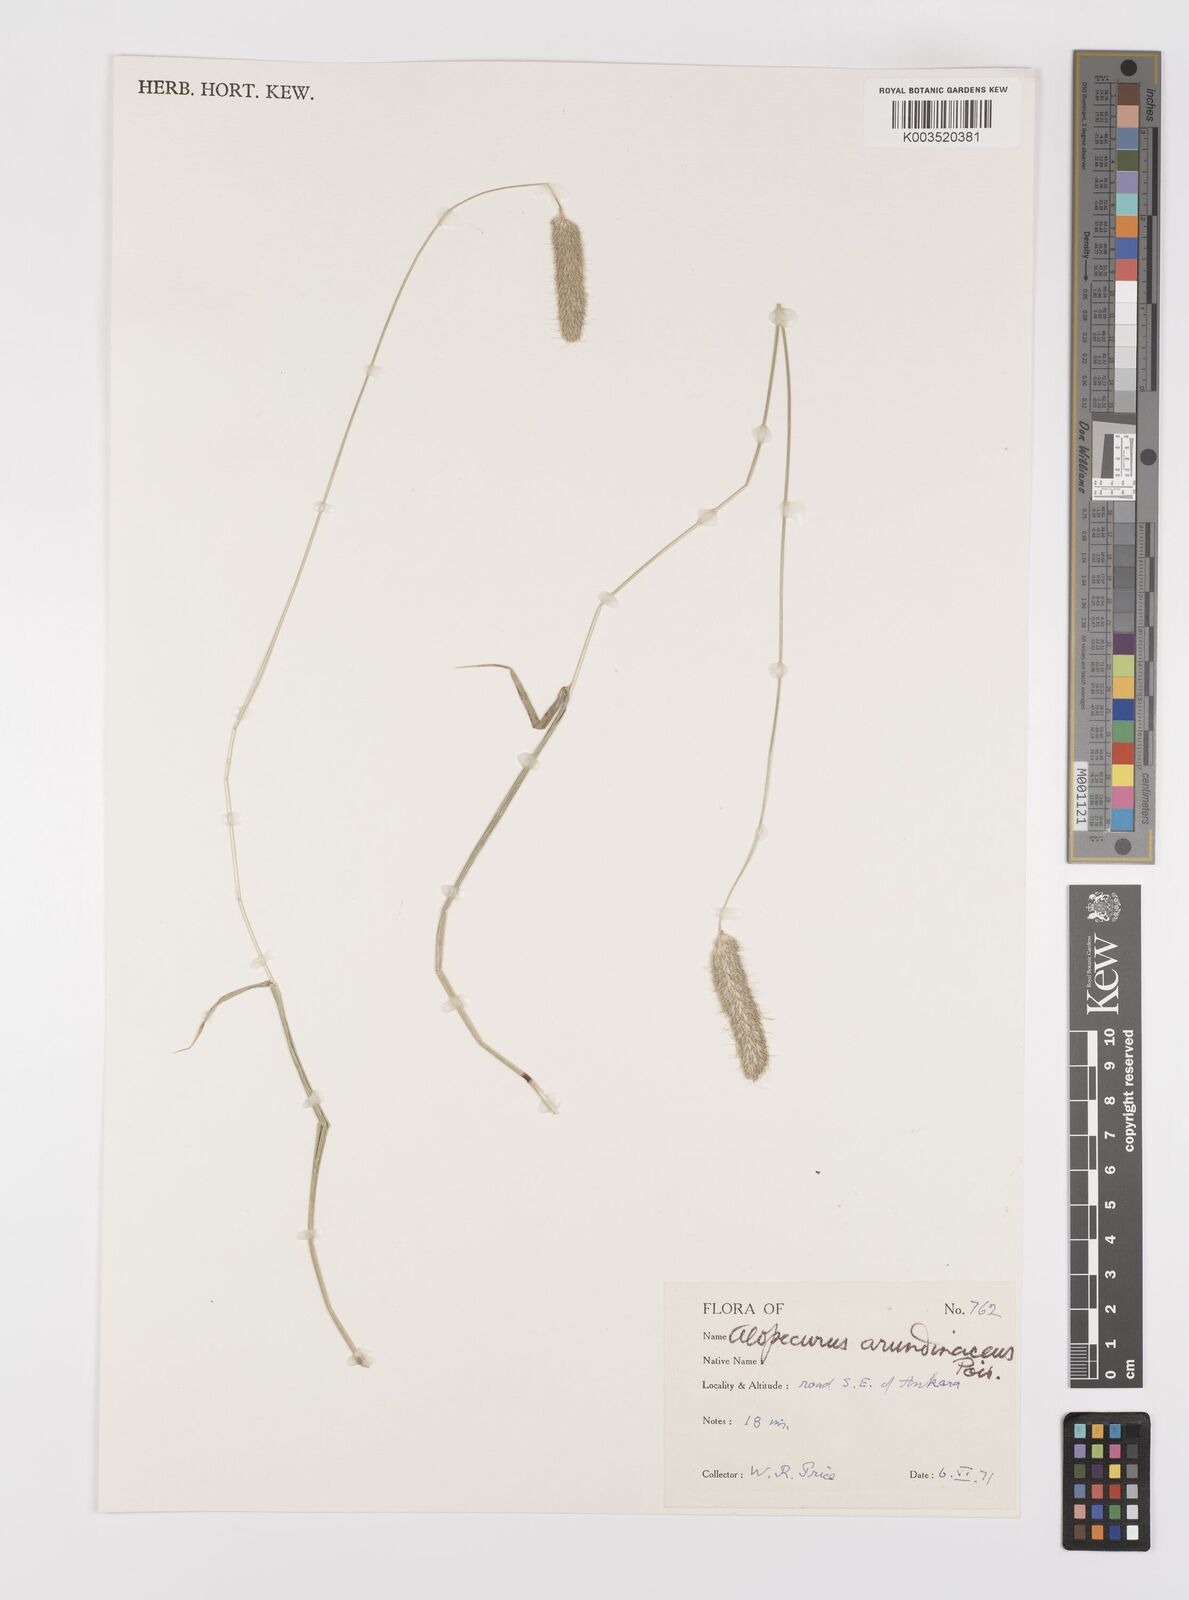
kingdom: Plantae
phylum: Tracheophyta
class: Liliopsida
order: Poales
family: Poaceae
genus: Alopecurus
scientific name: Alopecurus arundinaceus
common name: Creeping meadow foxtail
